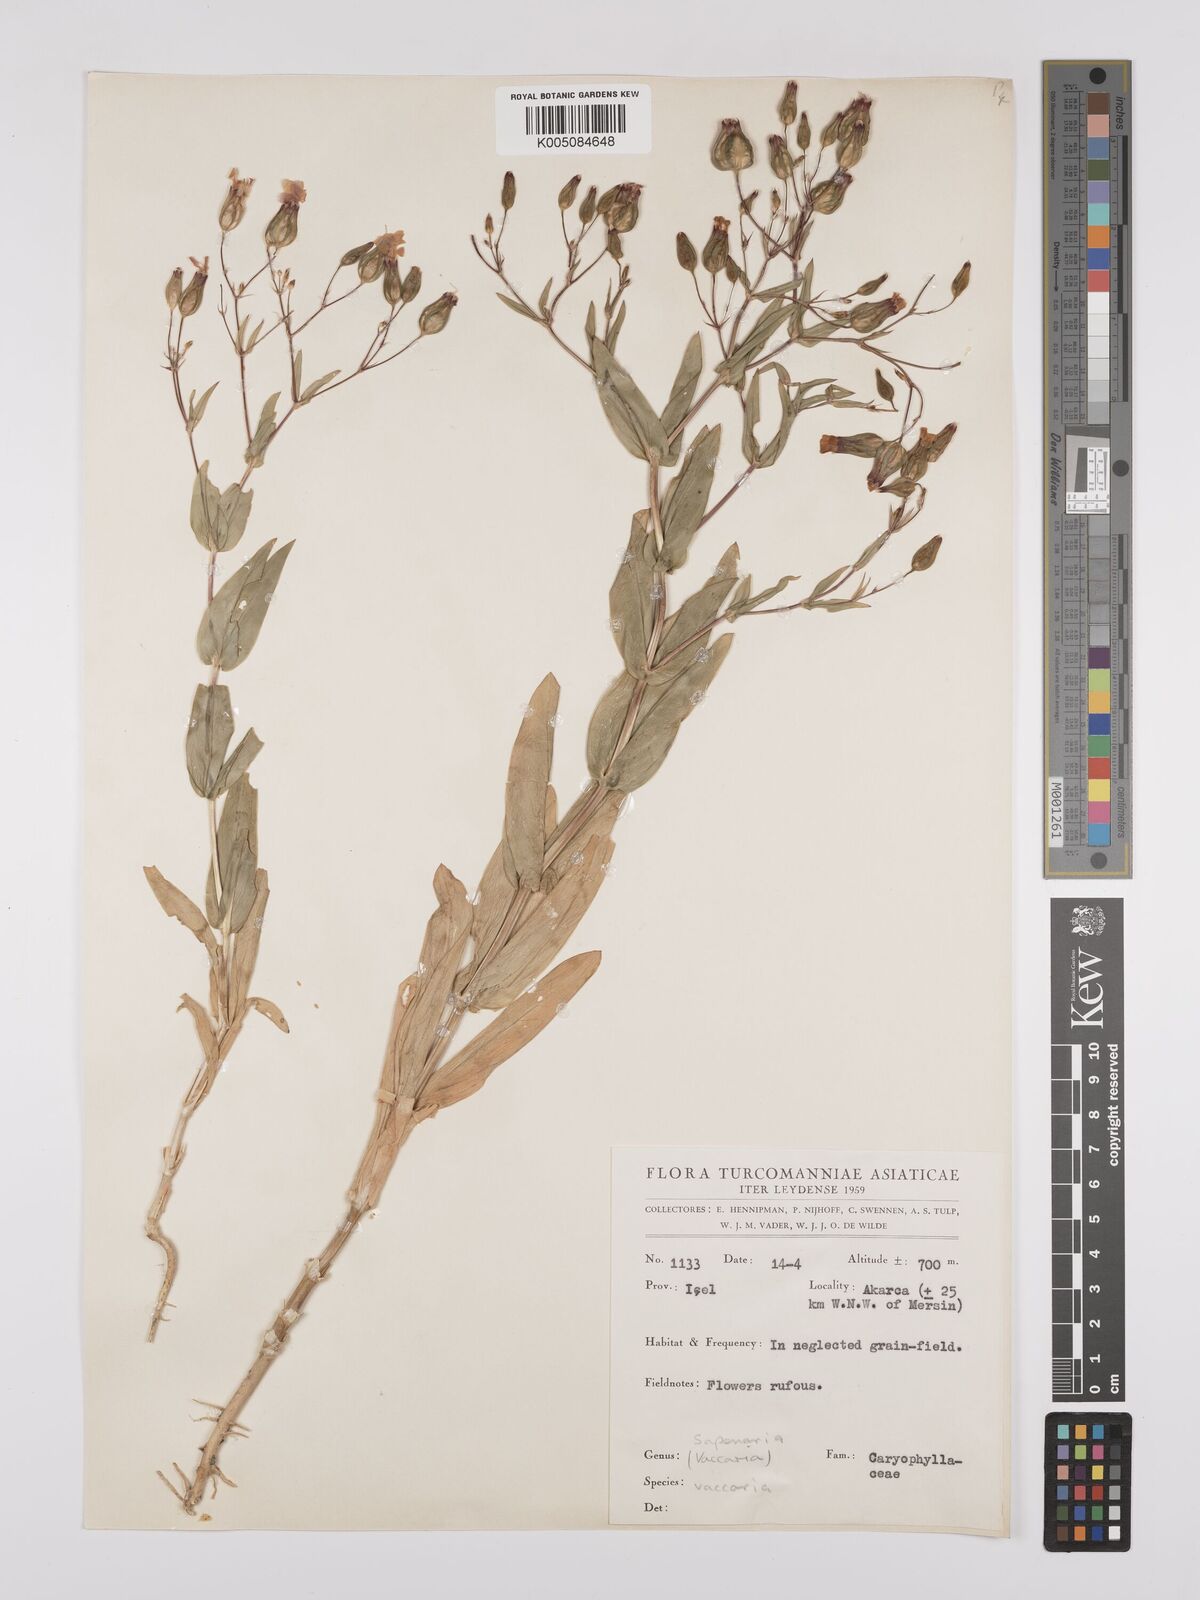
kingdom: Plantae
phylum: Tracheophyta
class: Magnoliopsida
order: Caryophyllales
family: Caryophyllaceae
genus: Vaccaria
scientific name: Vaccaria
